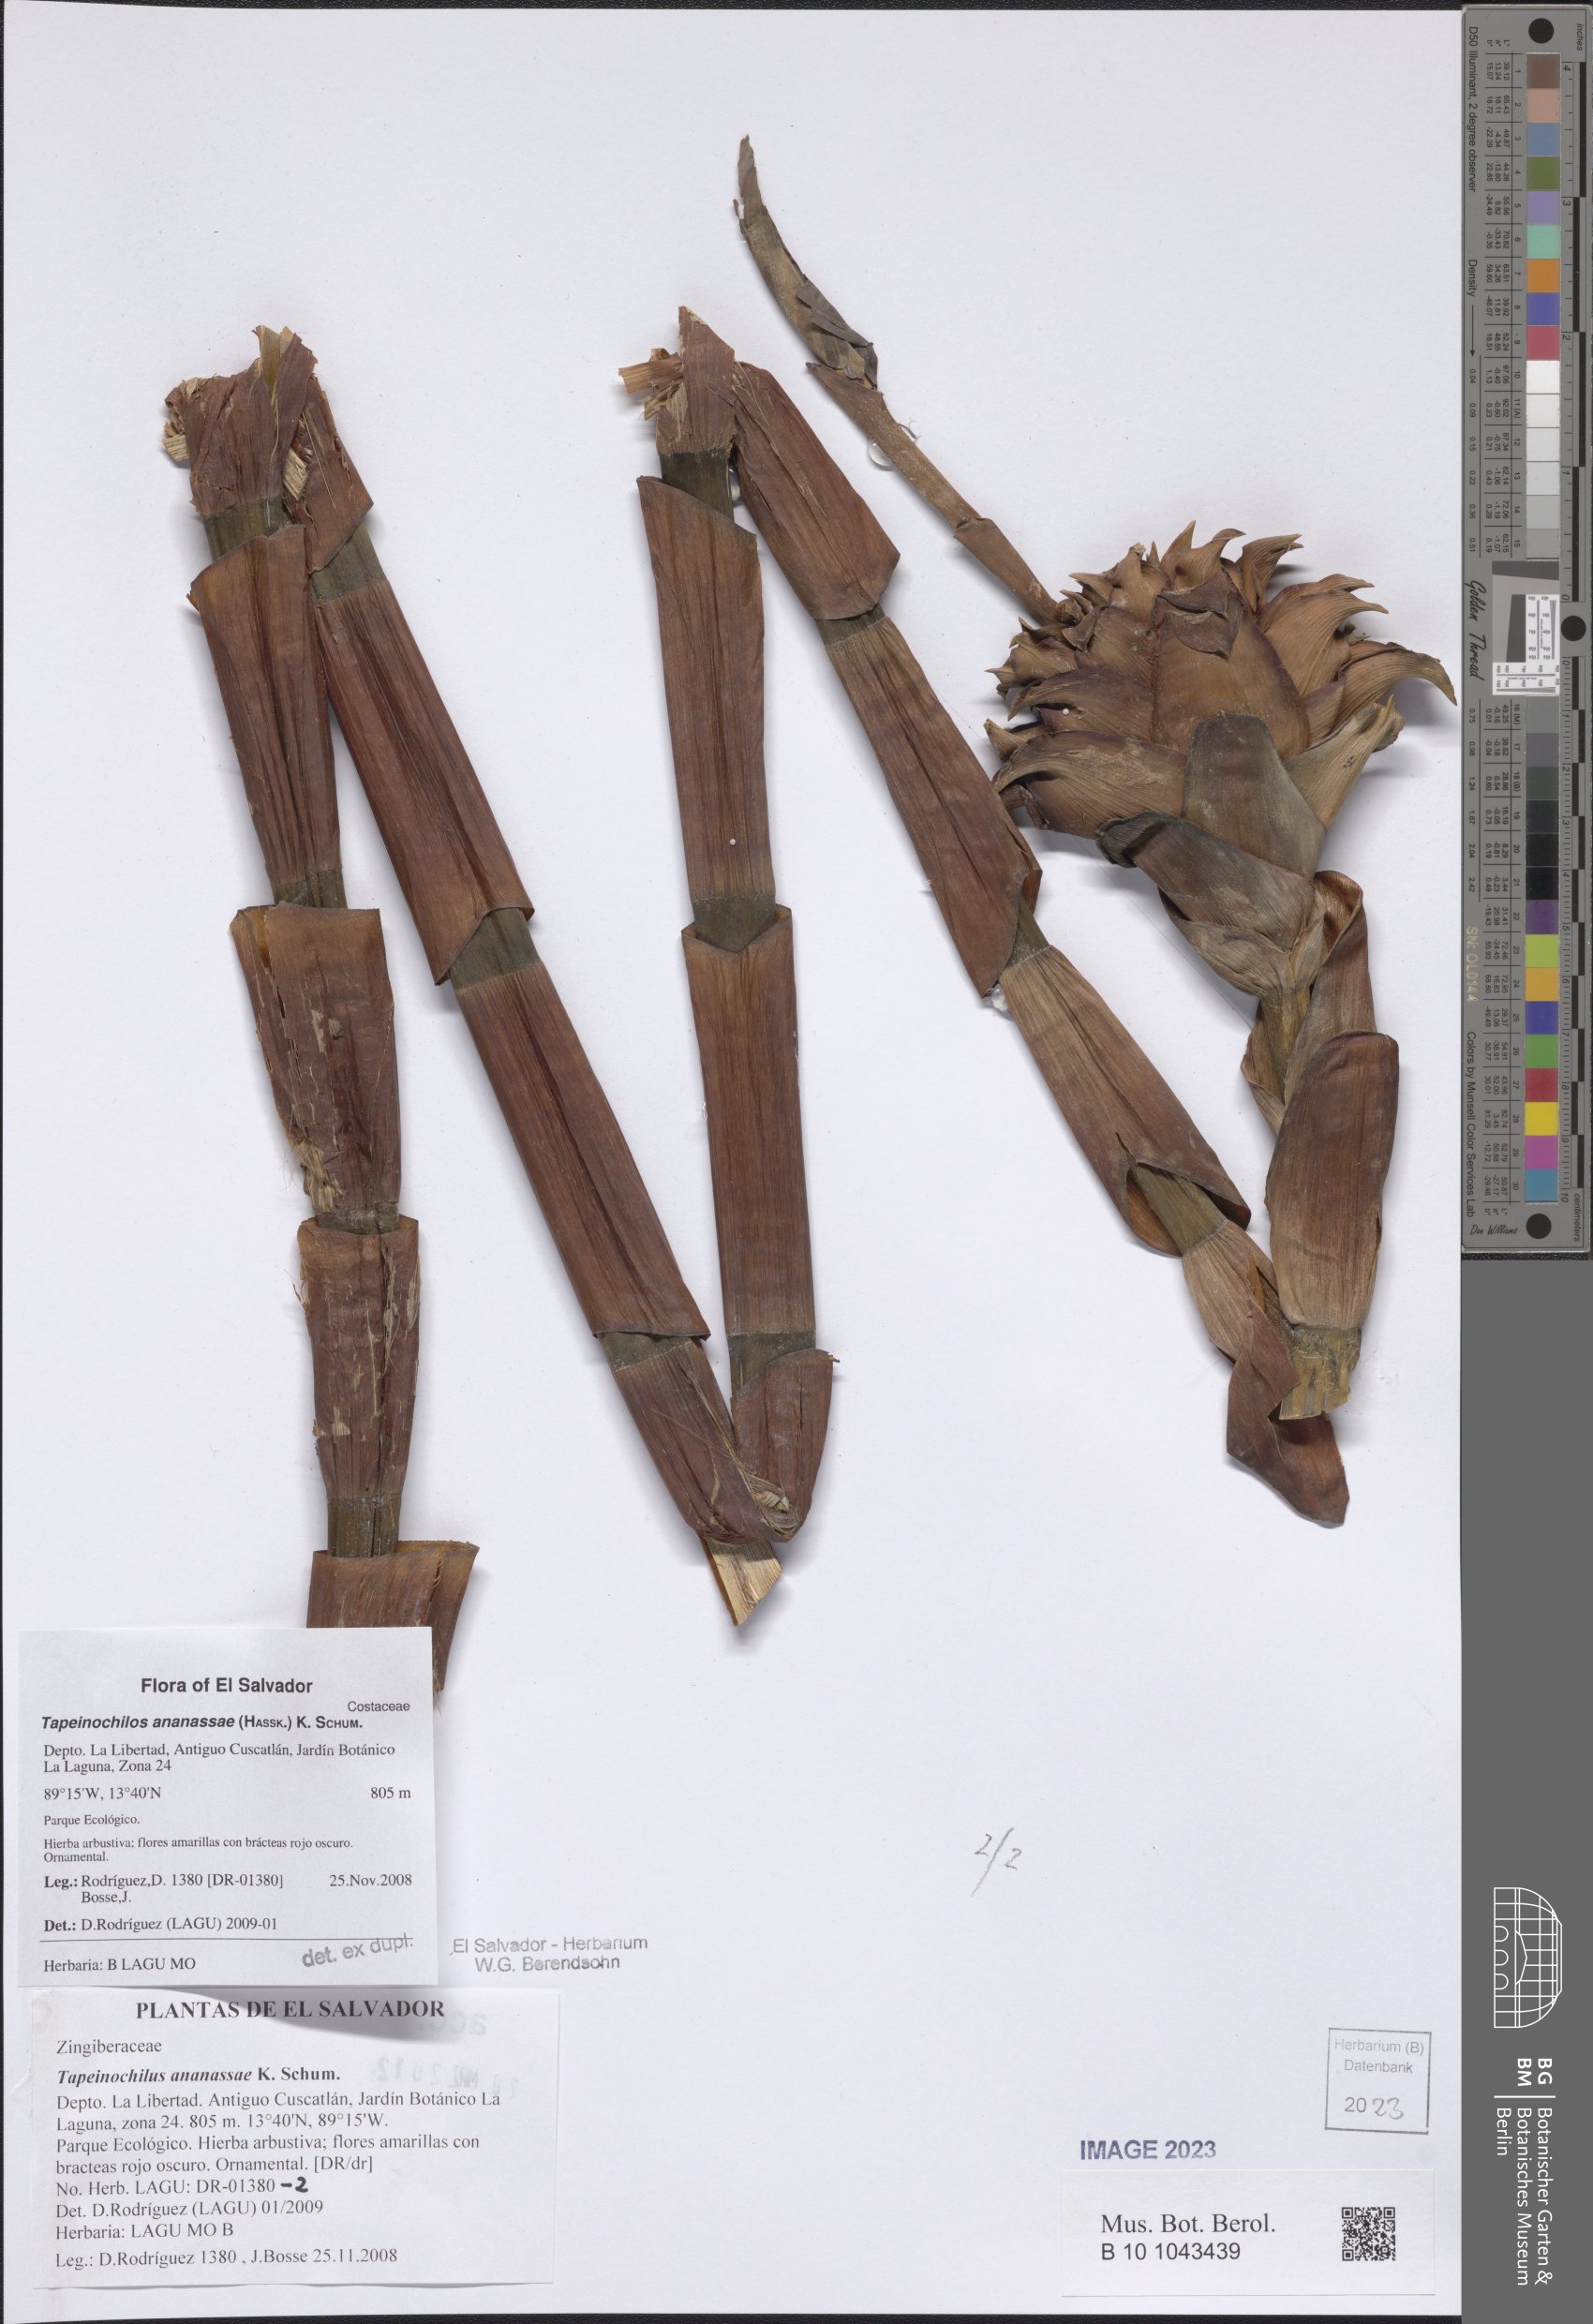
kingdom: Plantae
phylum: Tracheophyta
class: Liliopsida
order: Zingiberales
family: Costaceae
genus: Tapeinochilos
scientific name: Tapeinochilos ananassae
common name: Torch-ginger
